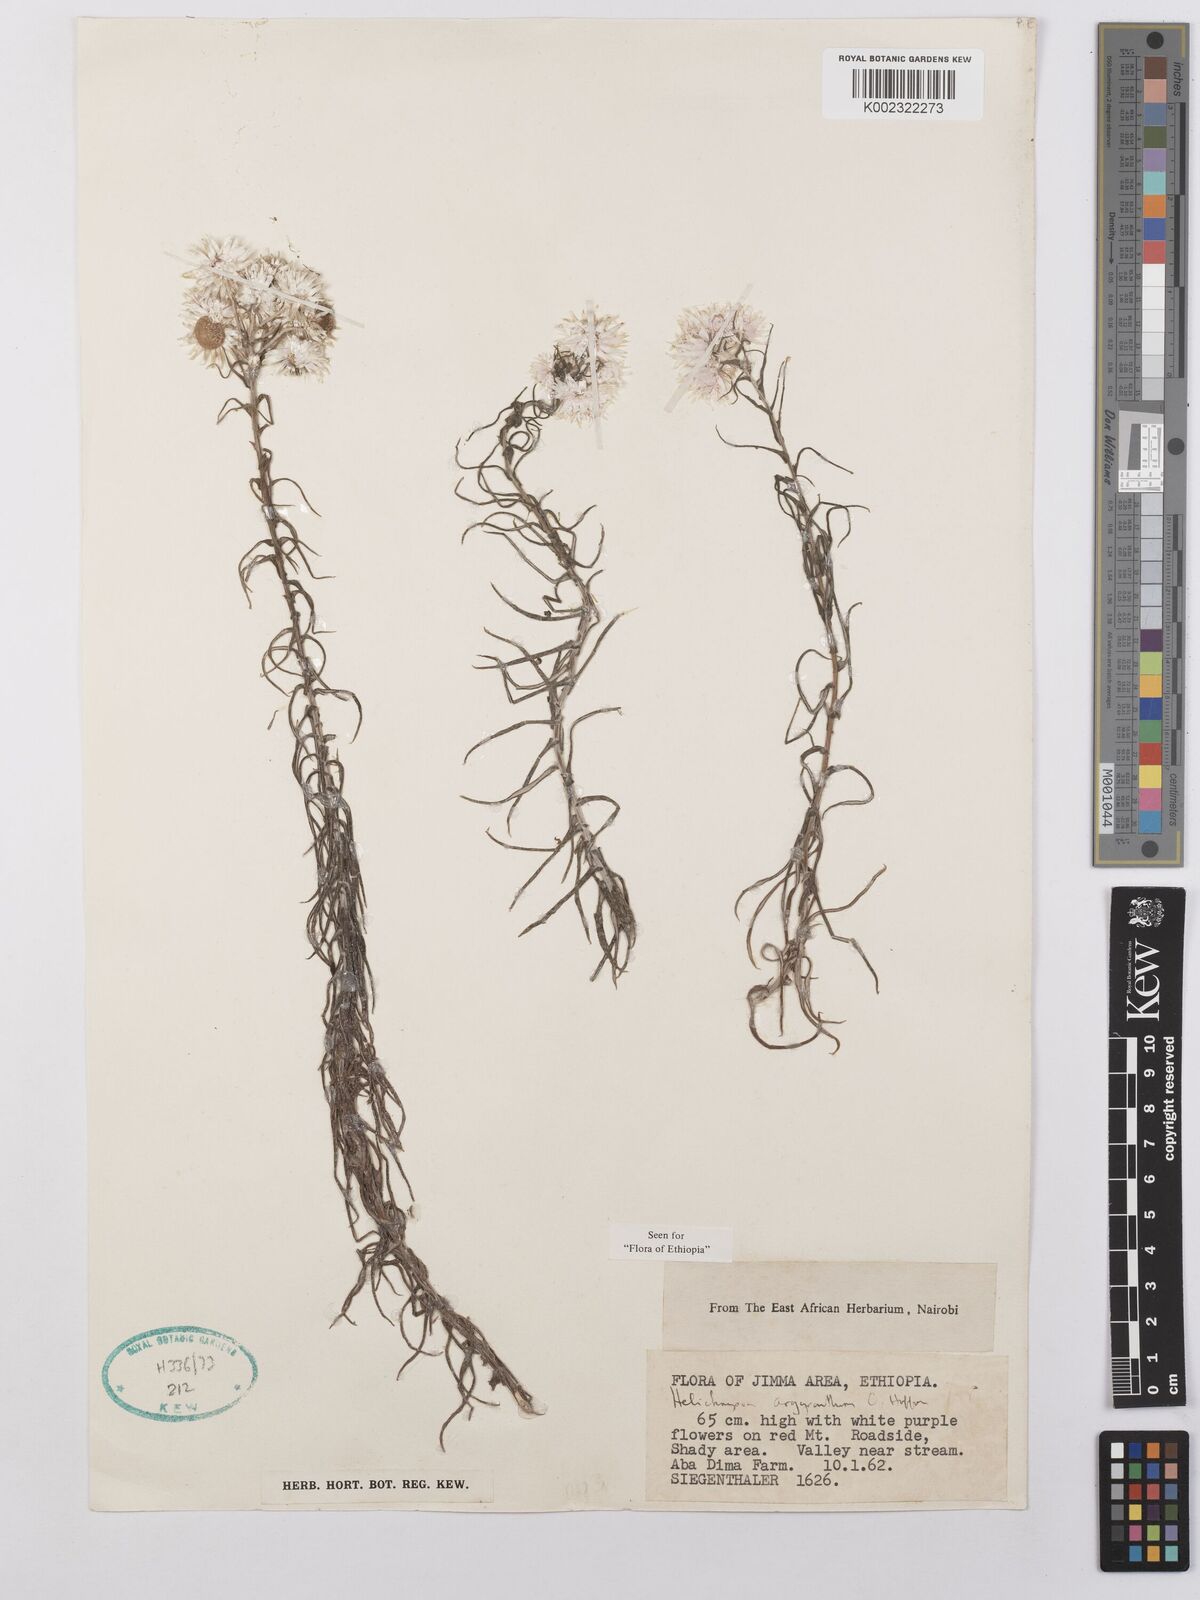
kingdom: Plantae
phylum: Tracheophyta
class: Magnoliopsida
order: Asterales
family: Asteraceae
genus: Helichrysum
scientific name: Helichrysum argyranthum
